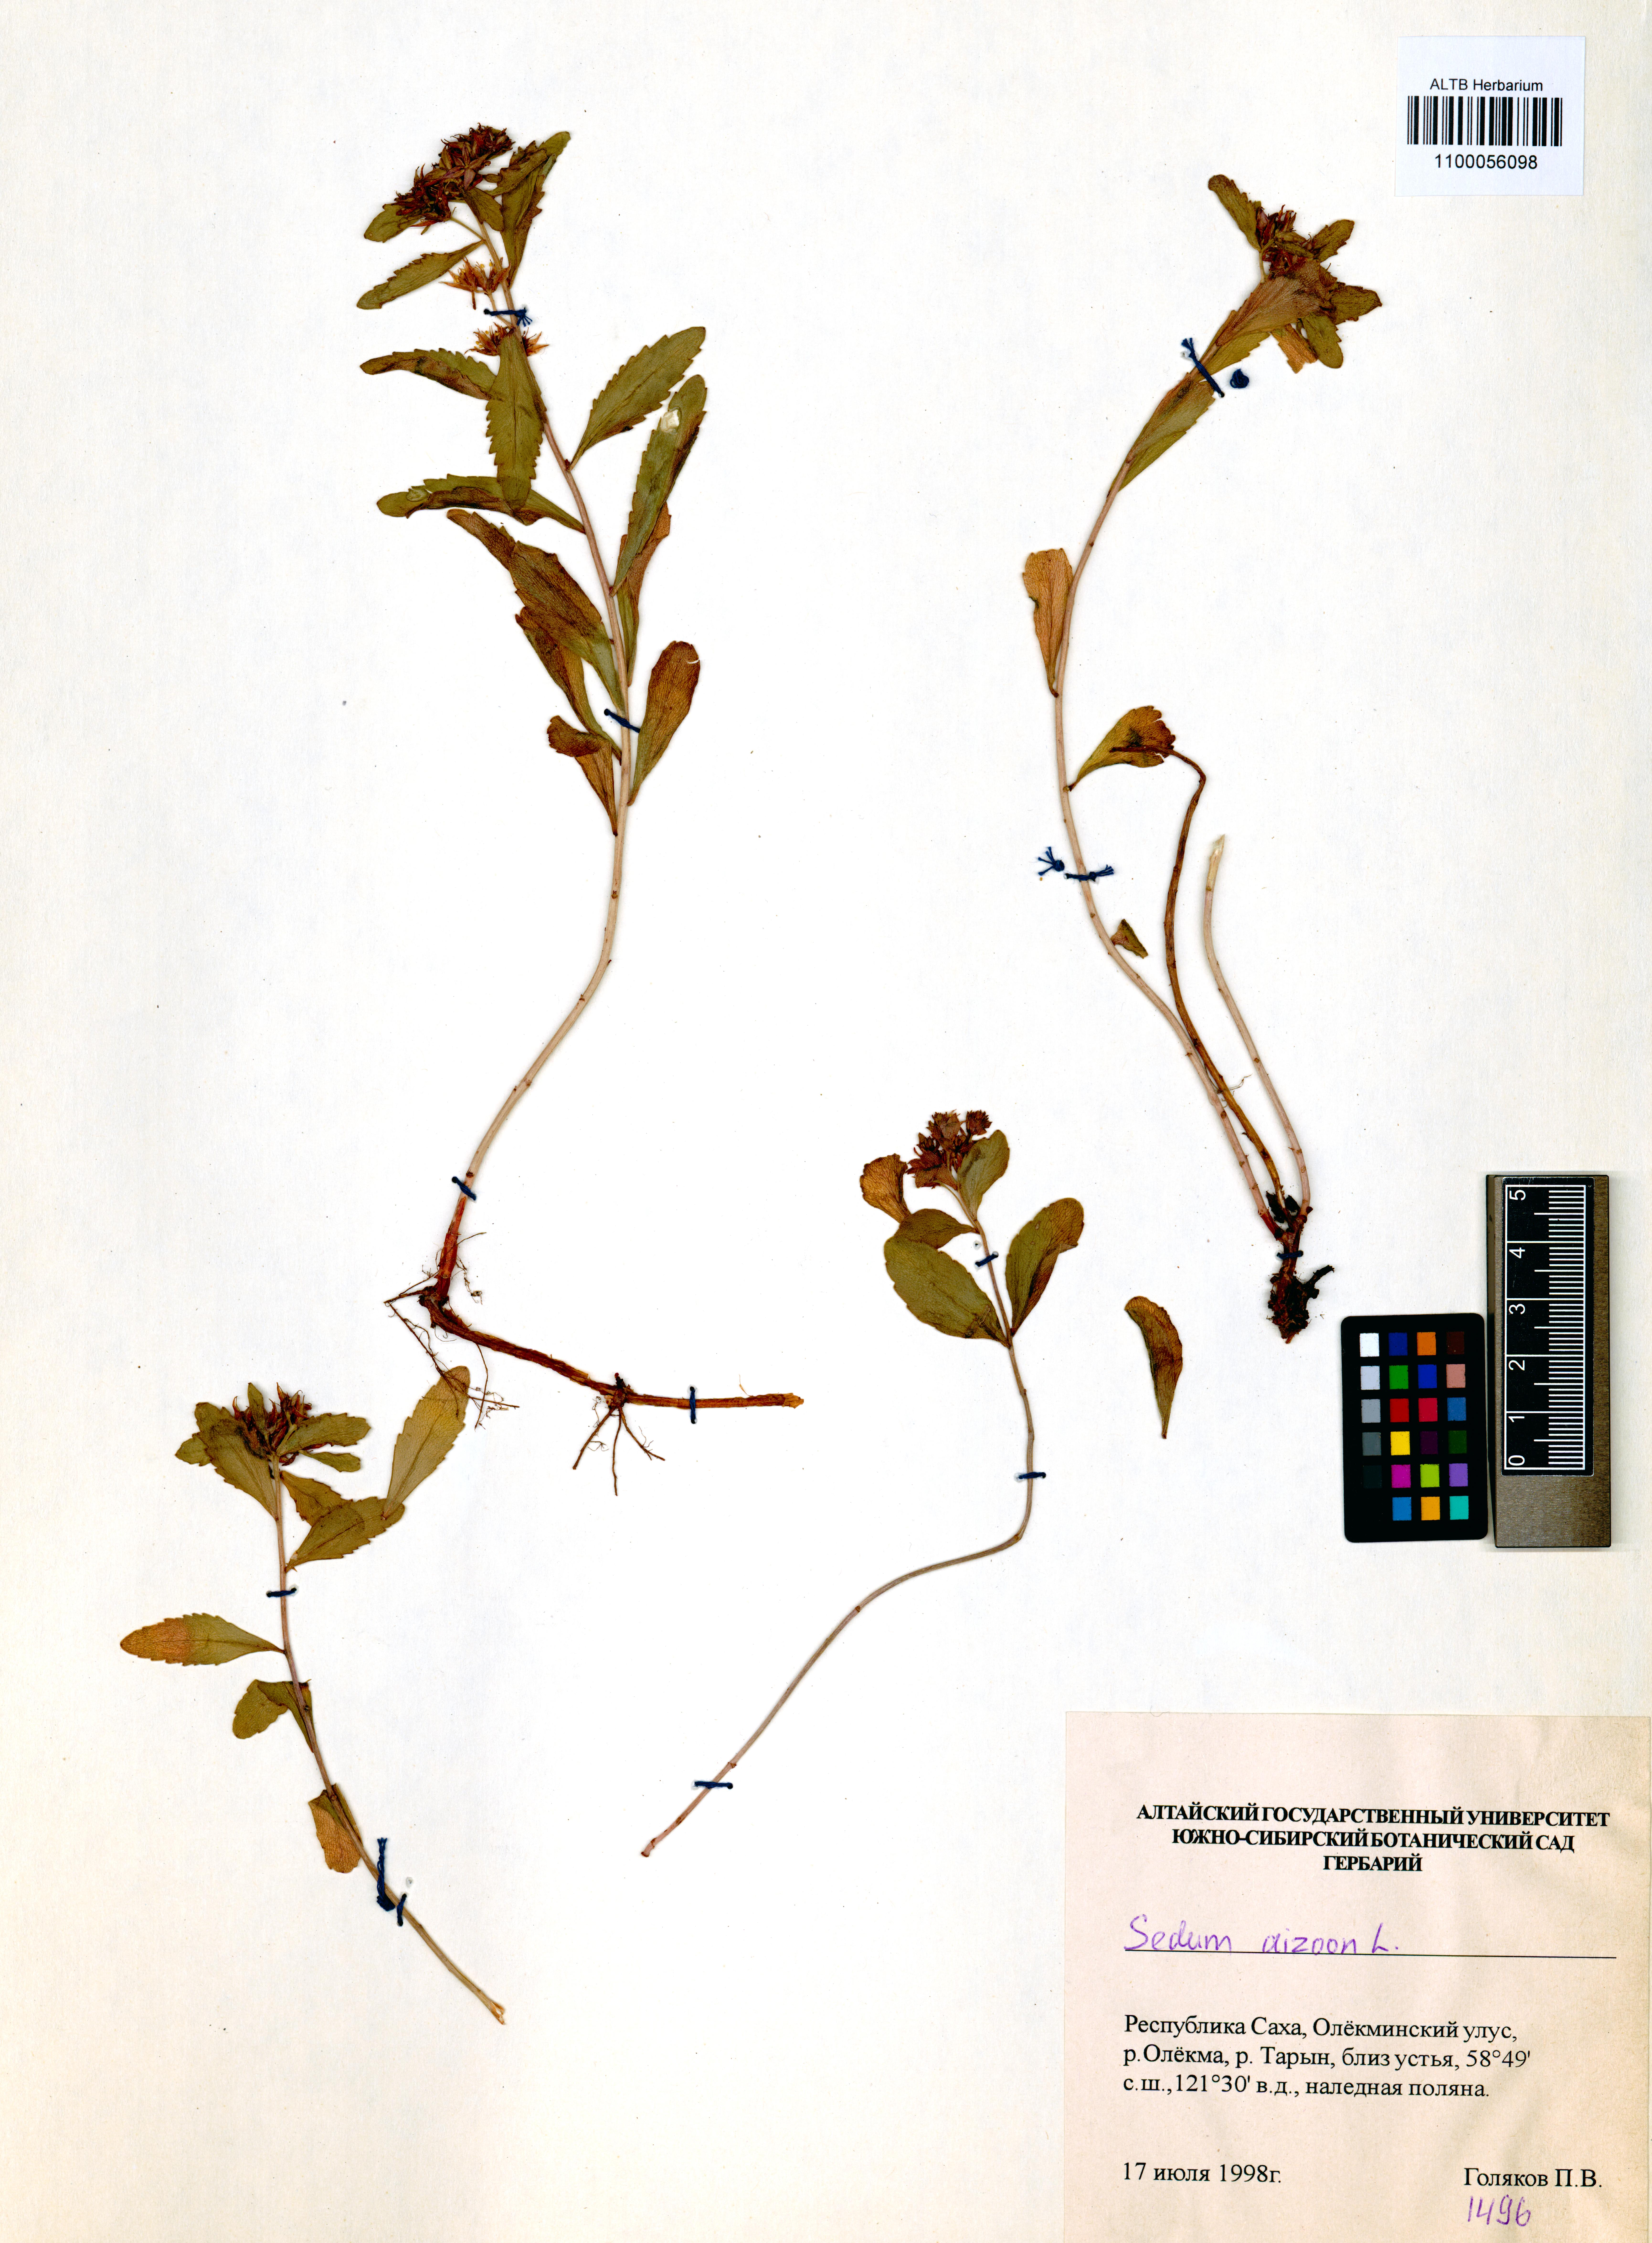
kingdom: Plantae
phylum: Tracheophyta
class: Magnoliopsida
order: Saxifragales
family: Crassulaceae
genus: Phedimus
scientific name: Phedimus aizoon
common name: Orpin aizoon
